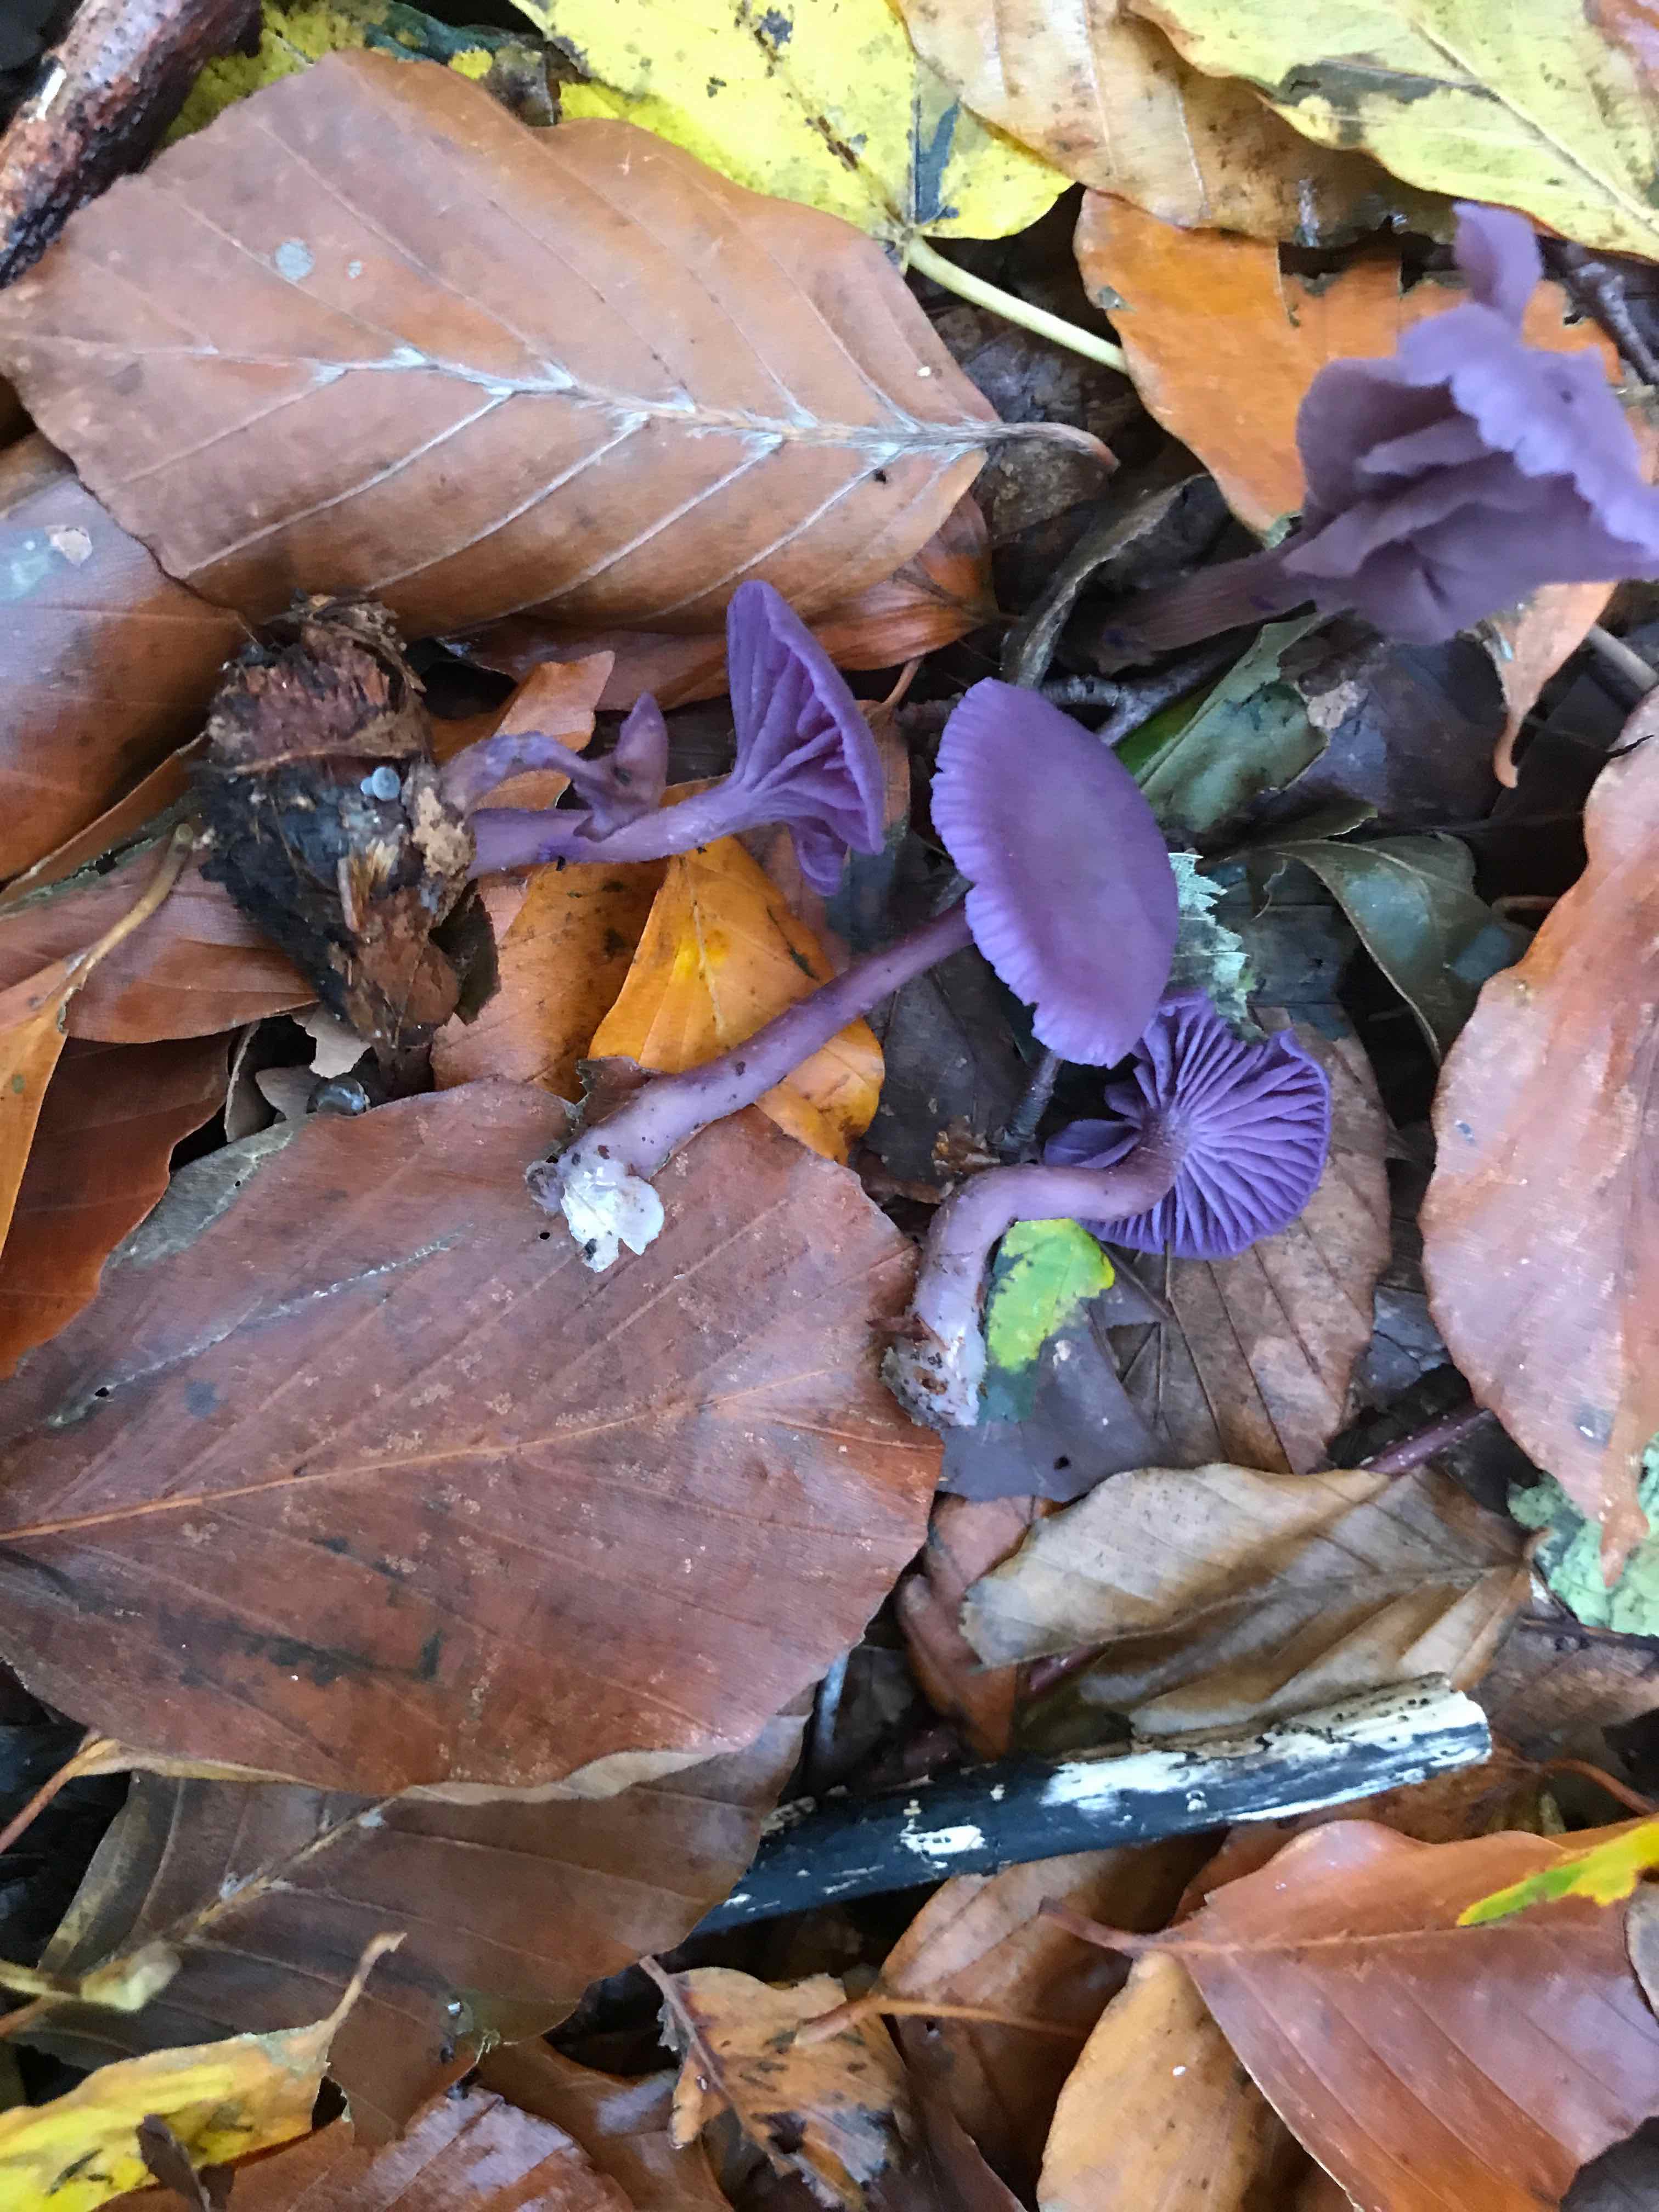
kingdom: Fungi
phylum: Basidiomycota
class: Agaricomycetes
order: Agaricales
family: Hydnangiaceae
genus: Laccaria
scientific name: Laccaria amethystina
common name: violet ametysthat
